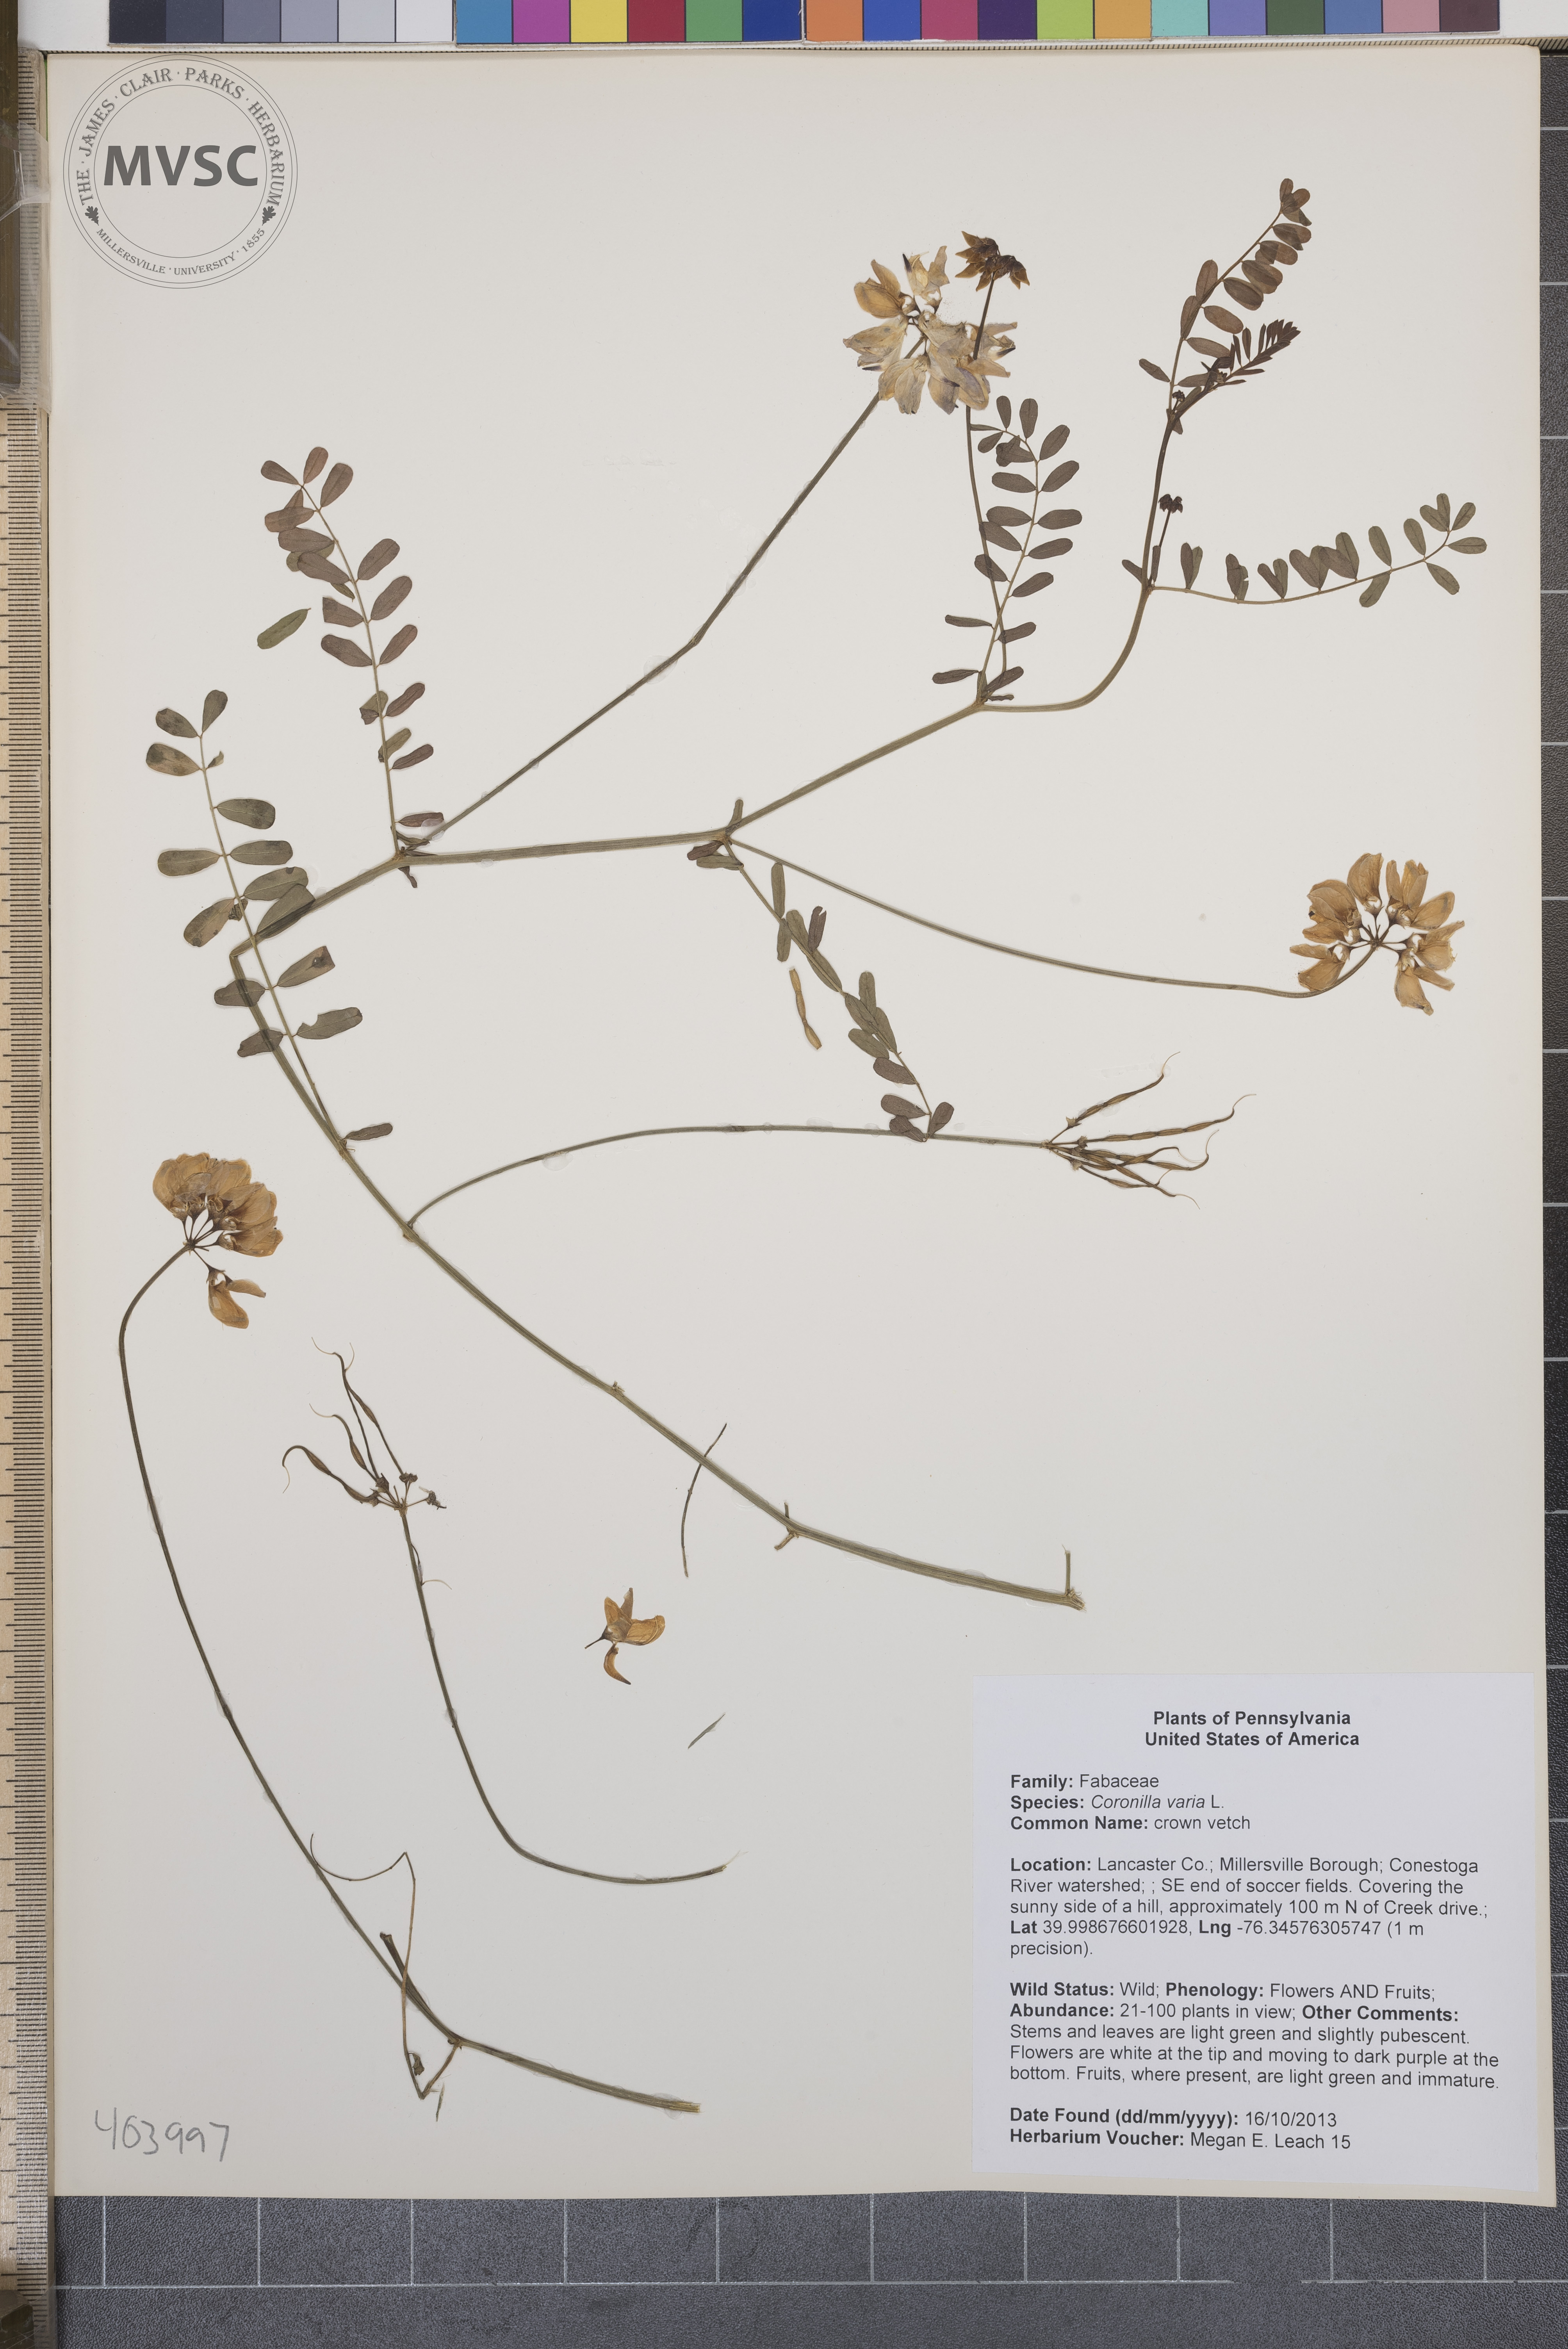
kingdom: Plantae
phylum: Tracheophyta
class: Magnoliopsida
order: Fabales
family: Fabaceae
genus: Coronilla
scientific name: Coronilla varia
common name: crown vetch
